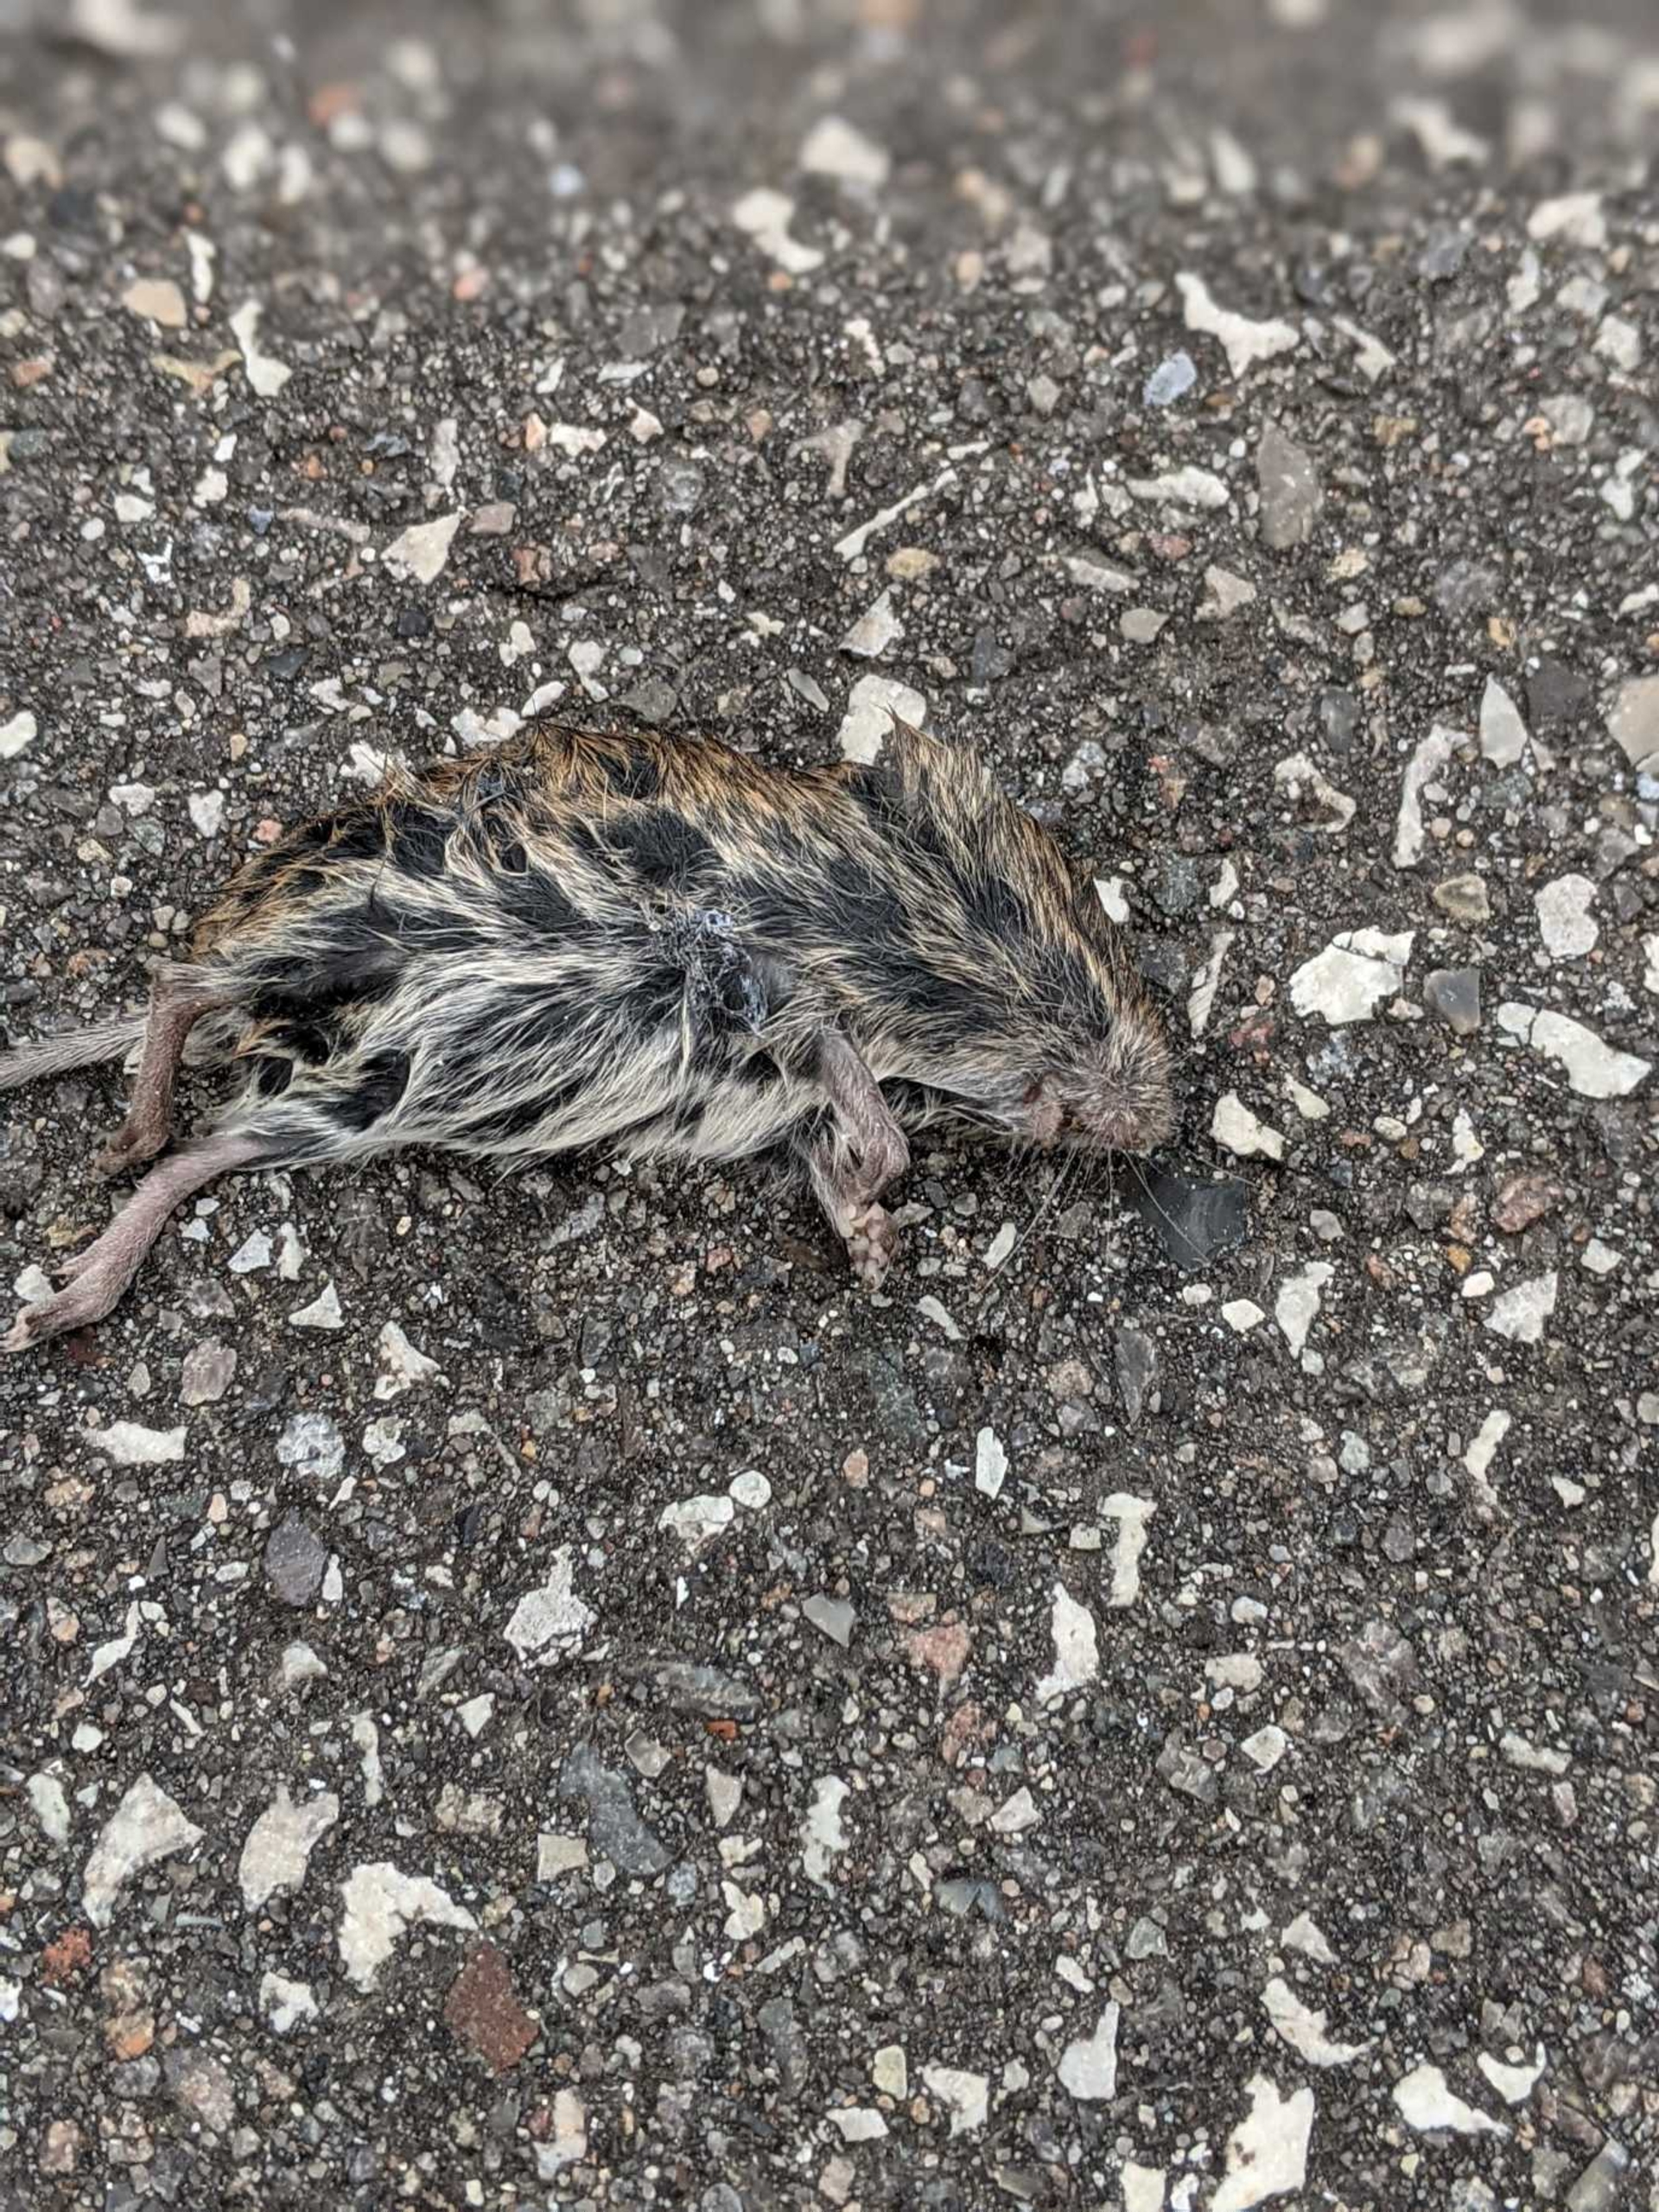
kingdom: Animalia
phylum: Chordata
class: Mammalia
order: Rodentia
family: Cricetidae
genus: Microtus
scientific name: Microtus agrestis
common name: Almindelig markmus
